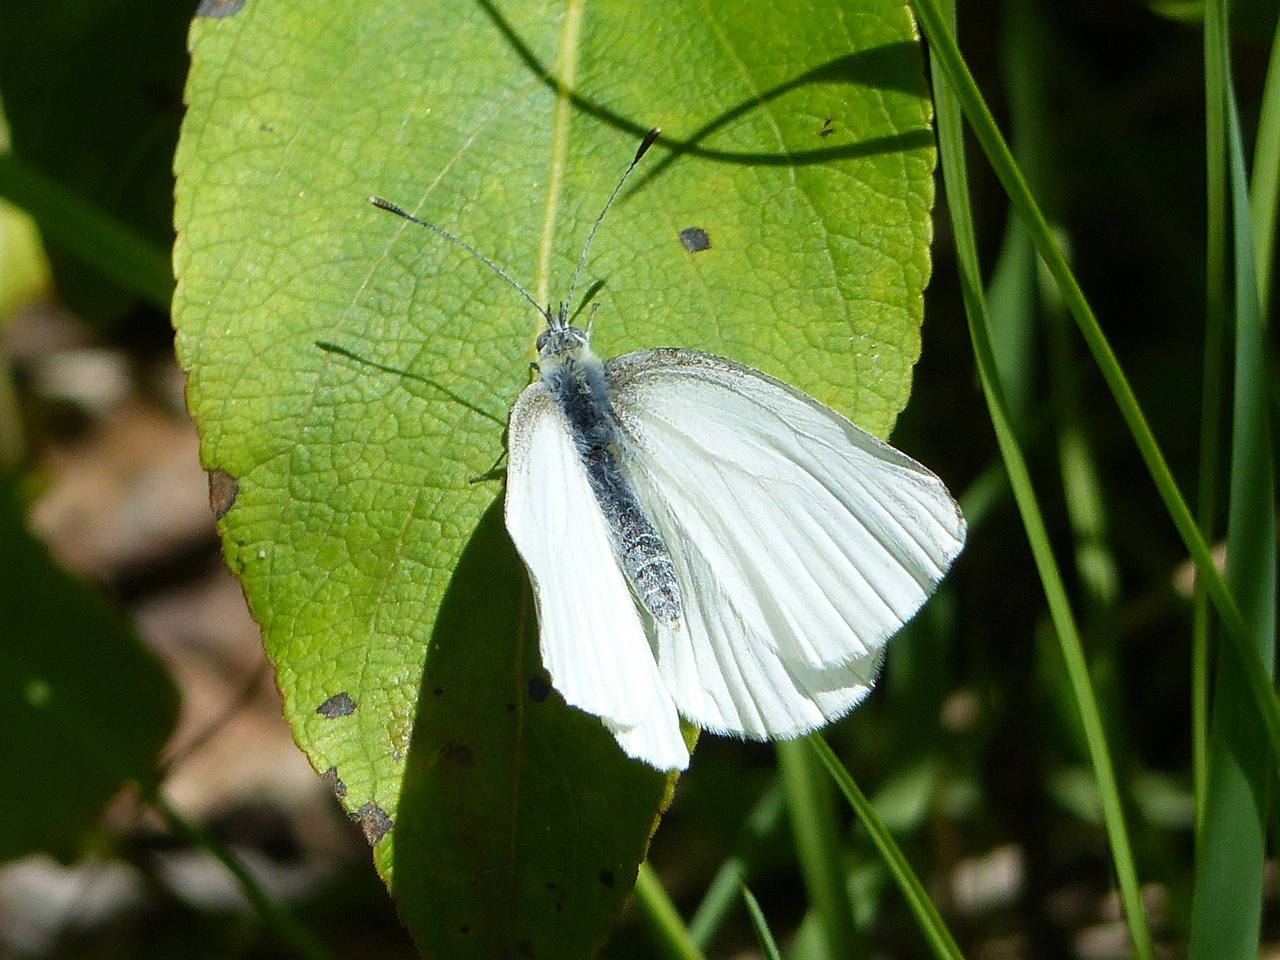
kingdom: Animalia
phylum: Arthropoda
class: Insecta
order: Lepidoptera
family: Pieridae
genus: Pieris
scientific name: Pieris oleracea
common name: Mustard White
